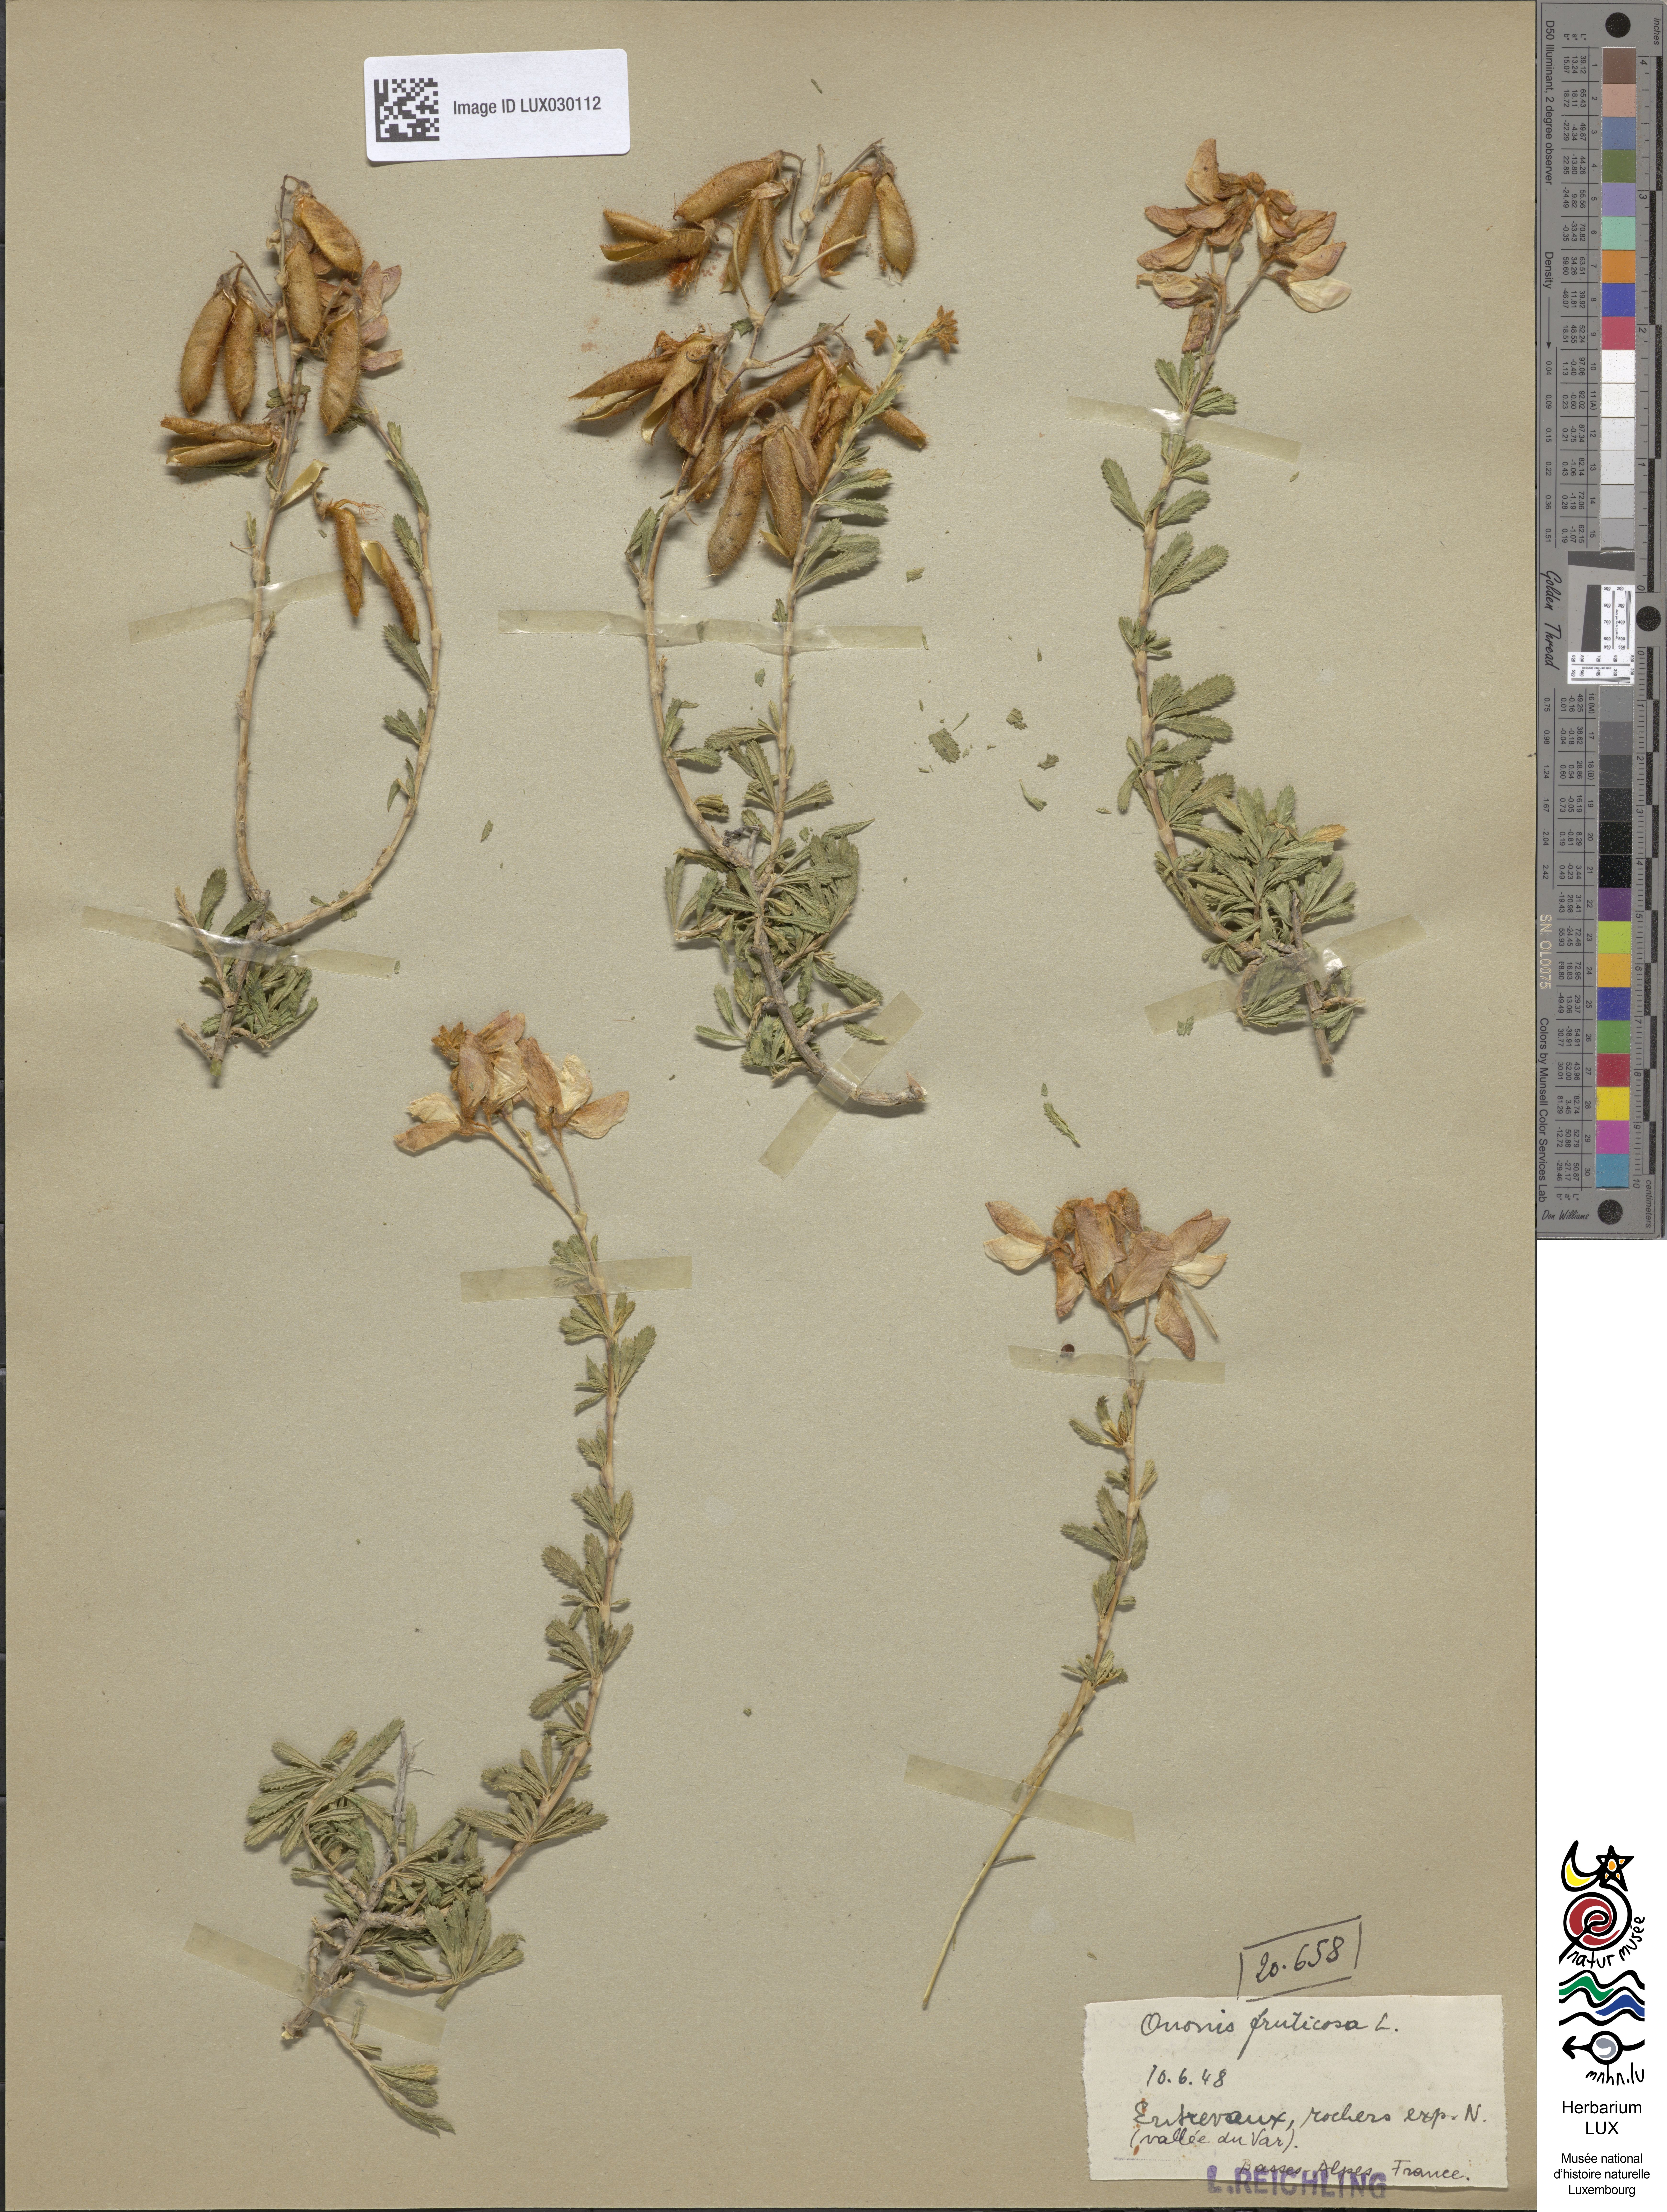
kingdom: Plantae
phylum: Tracheophyta
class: Magnoliopsida
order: Fabales
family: Fabaceae
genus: Ononis
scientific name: Ononis fruticosa
